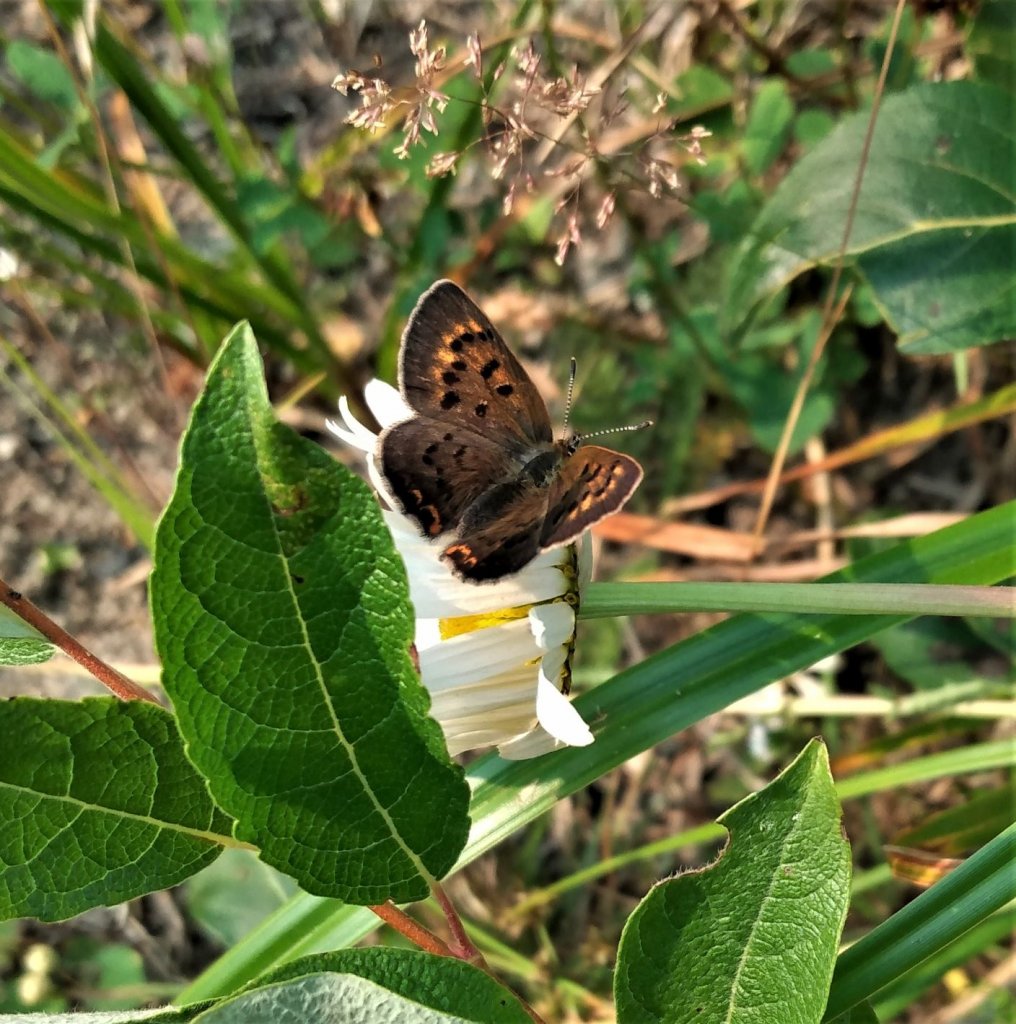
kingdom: Animalia
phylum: Arthropoda
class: Insecta
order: Lepidoptera
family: Lycaenidae
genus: Epidemia
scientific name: Epidemia dorcas
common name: Dorcas Copper
